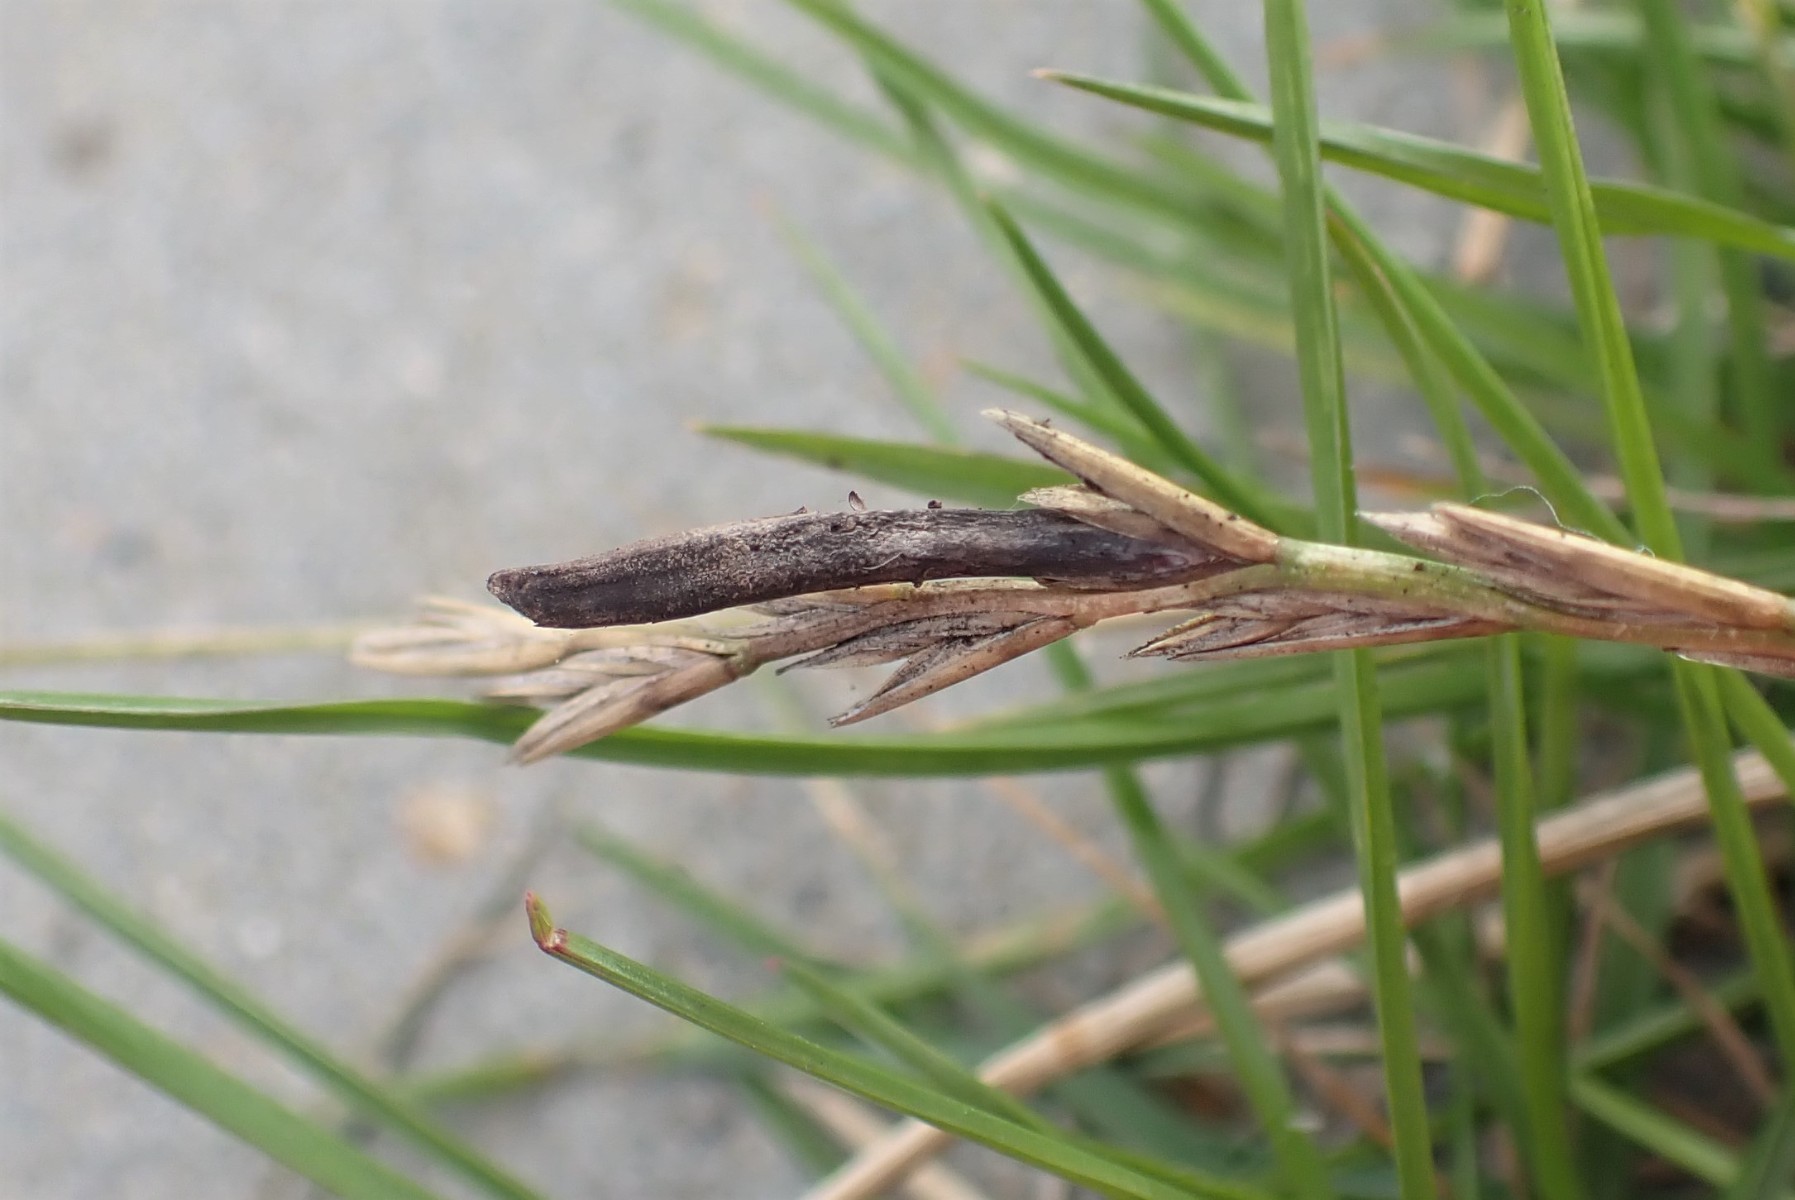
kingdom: Fungi
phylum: Ascomycota
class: Sordariomycetes
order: Hypocreales
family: Clavicipitaceae
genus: Claviceps
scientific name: Claviceps purpurea
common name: almindelig meldrøjer
